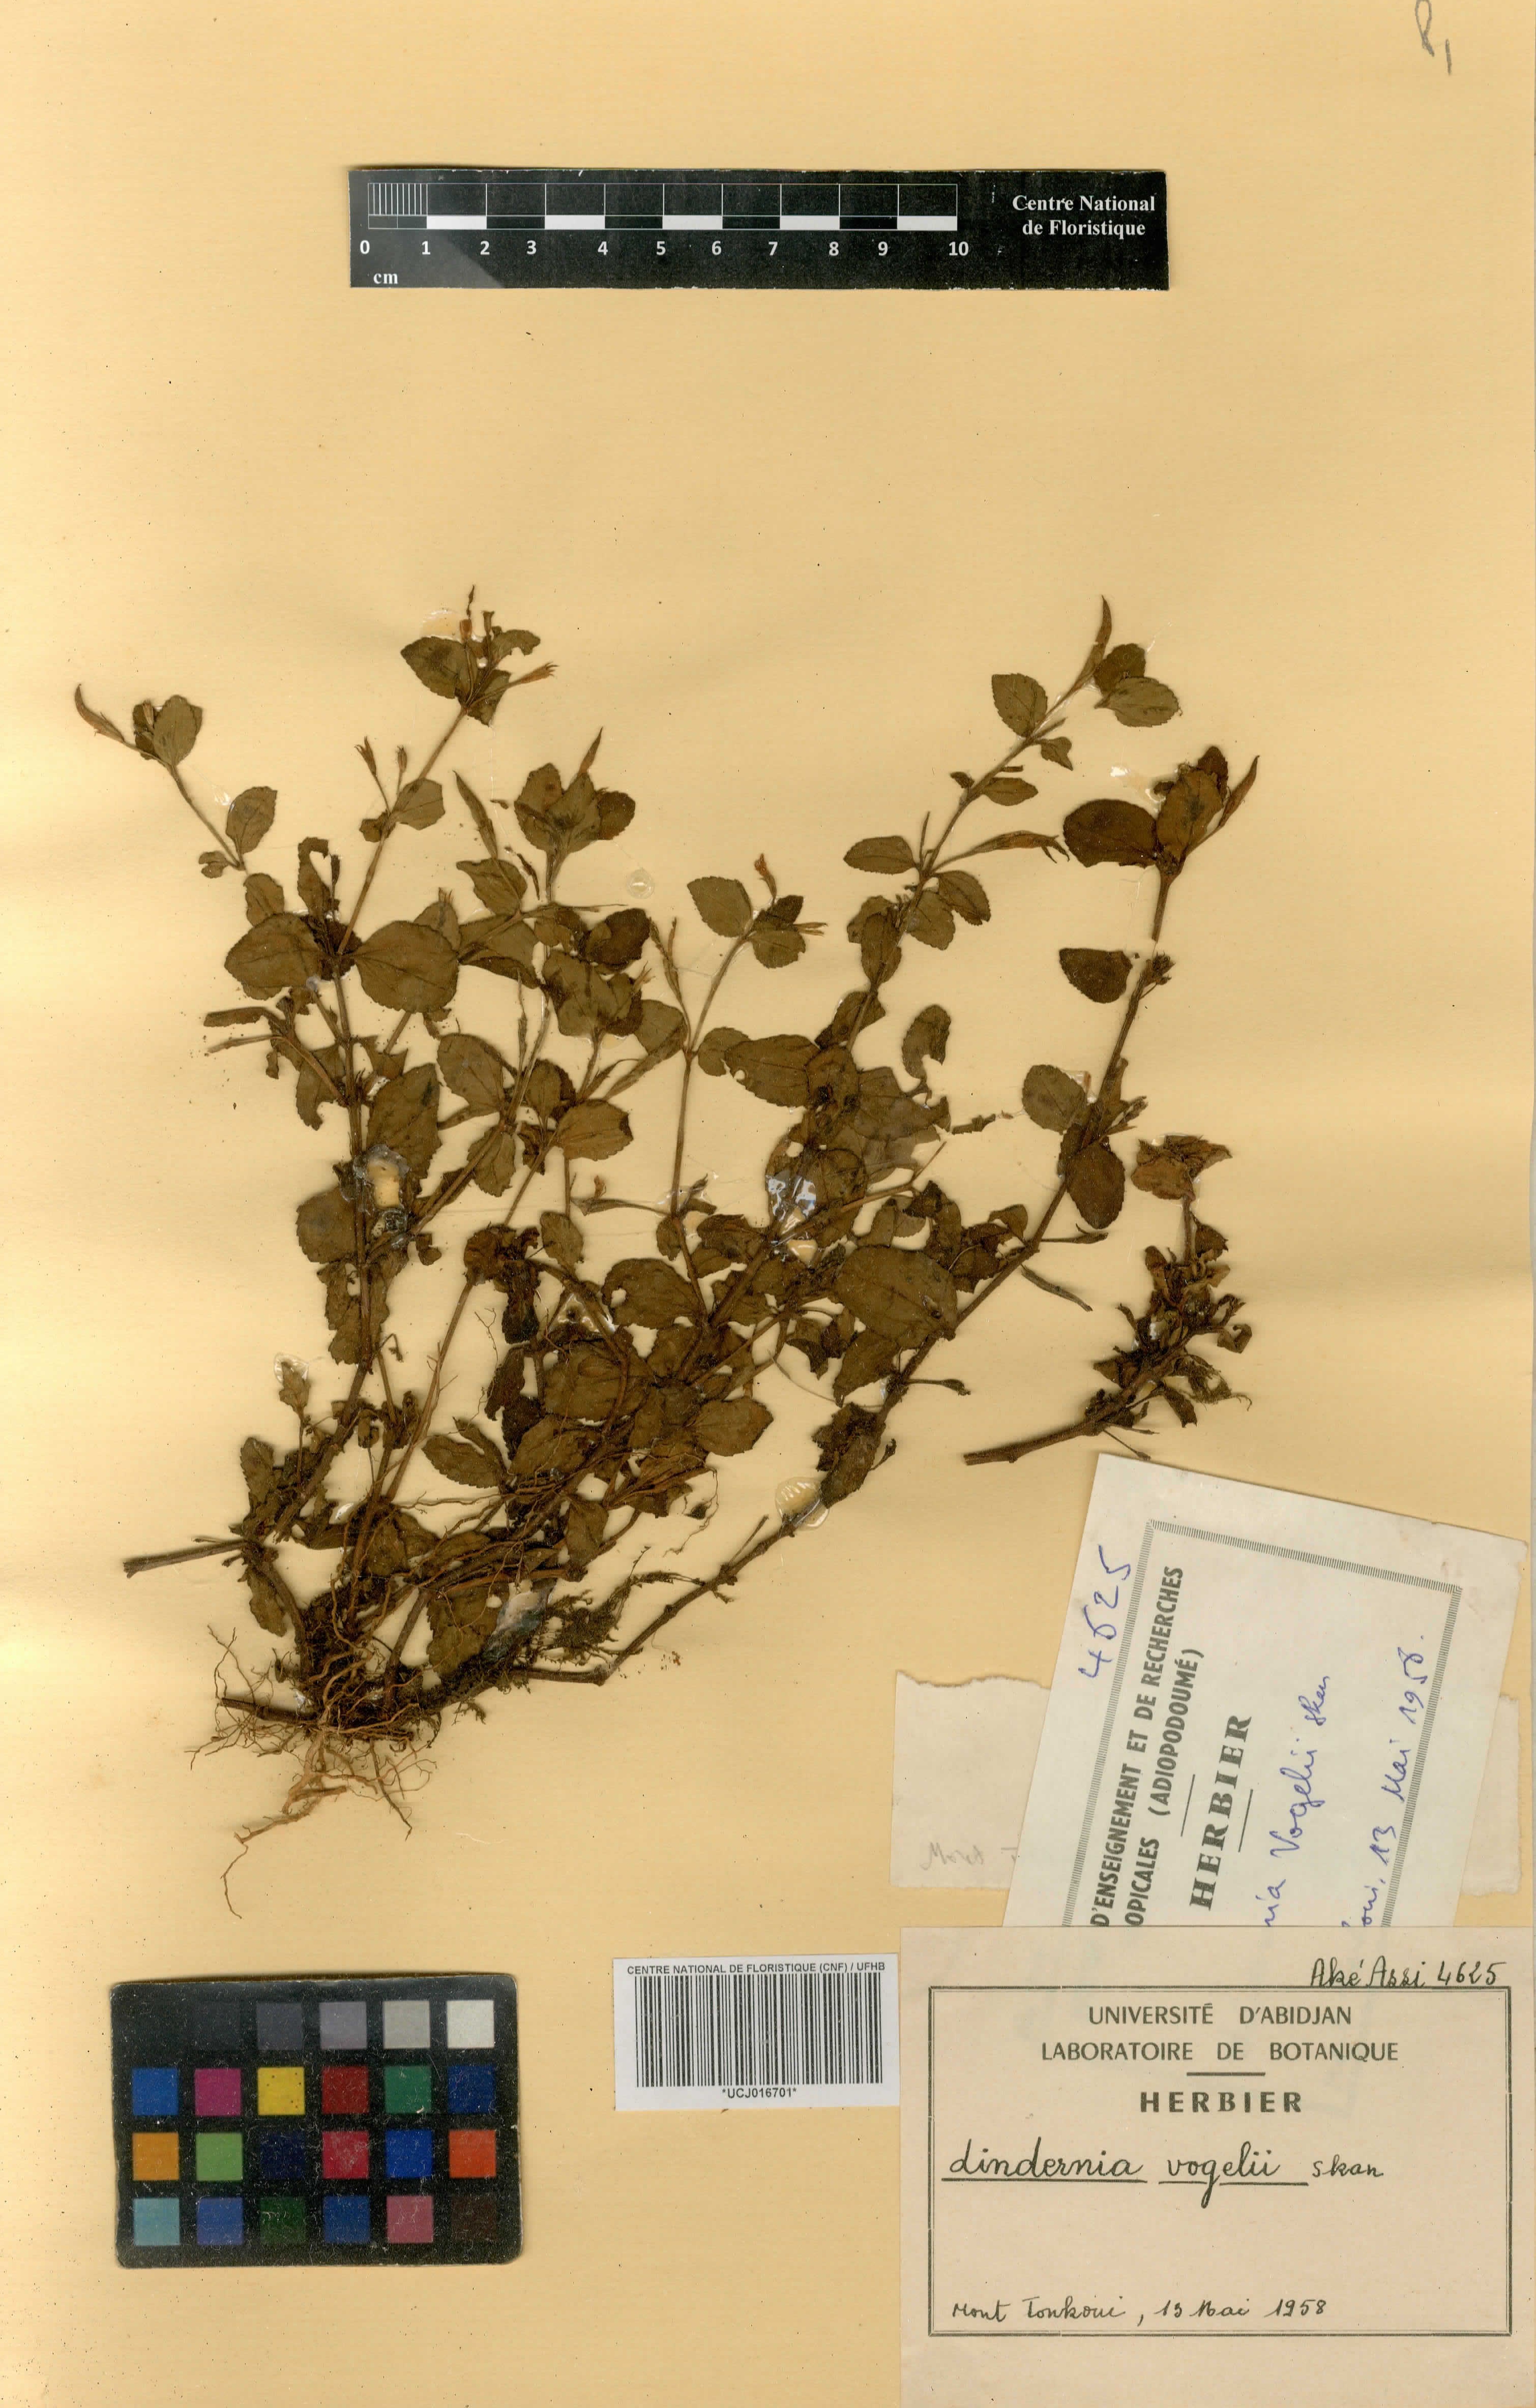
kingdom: Plantae
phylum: Tracheophyta
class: Magnoliopsida
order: Lamiales
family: Linderniaceae
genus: Vandellia
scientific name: Vandellia vogelii
